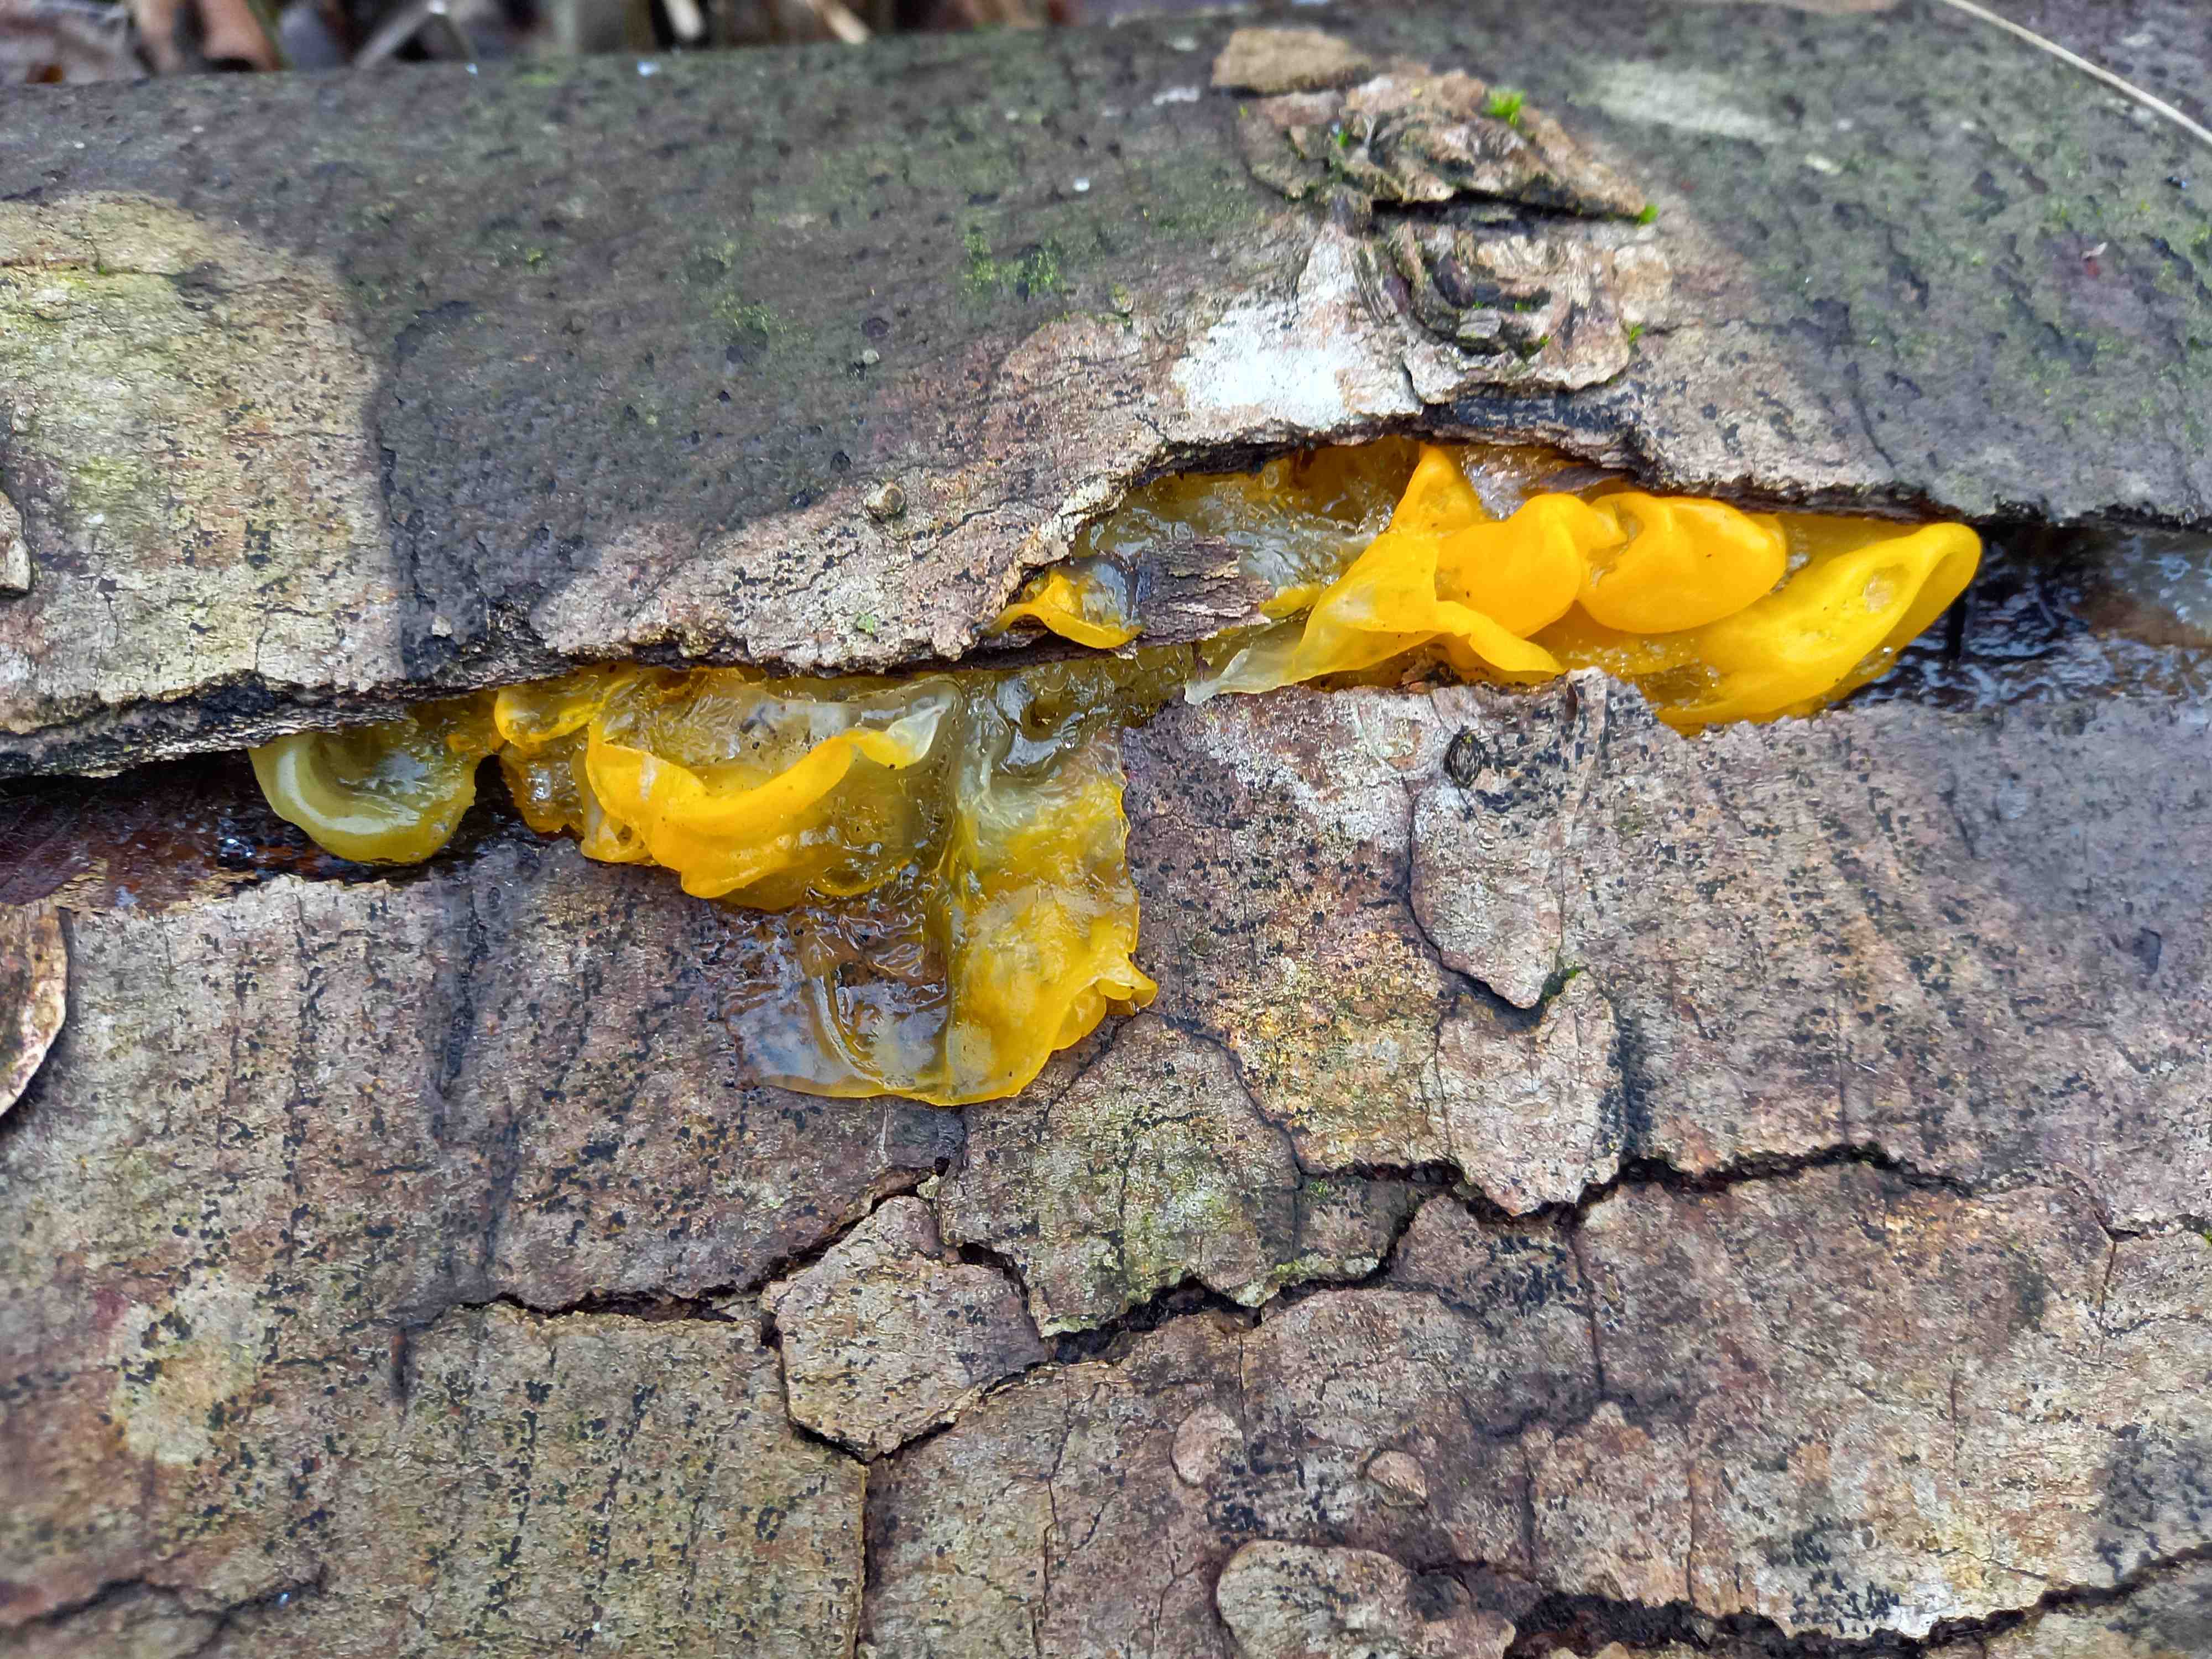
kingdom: Fungi
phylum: Basidiomycota
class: Tremellomycetes
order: Tremellales
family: Tremellaceae
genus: Tremella
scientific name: Tremella mesenterica
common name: gul bævresvamp
